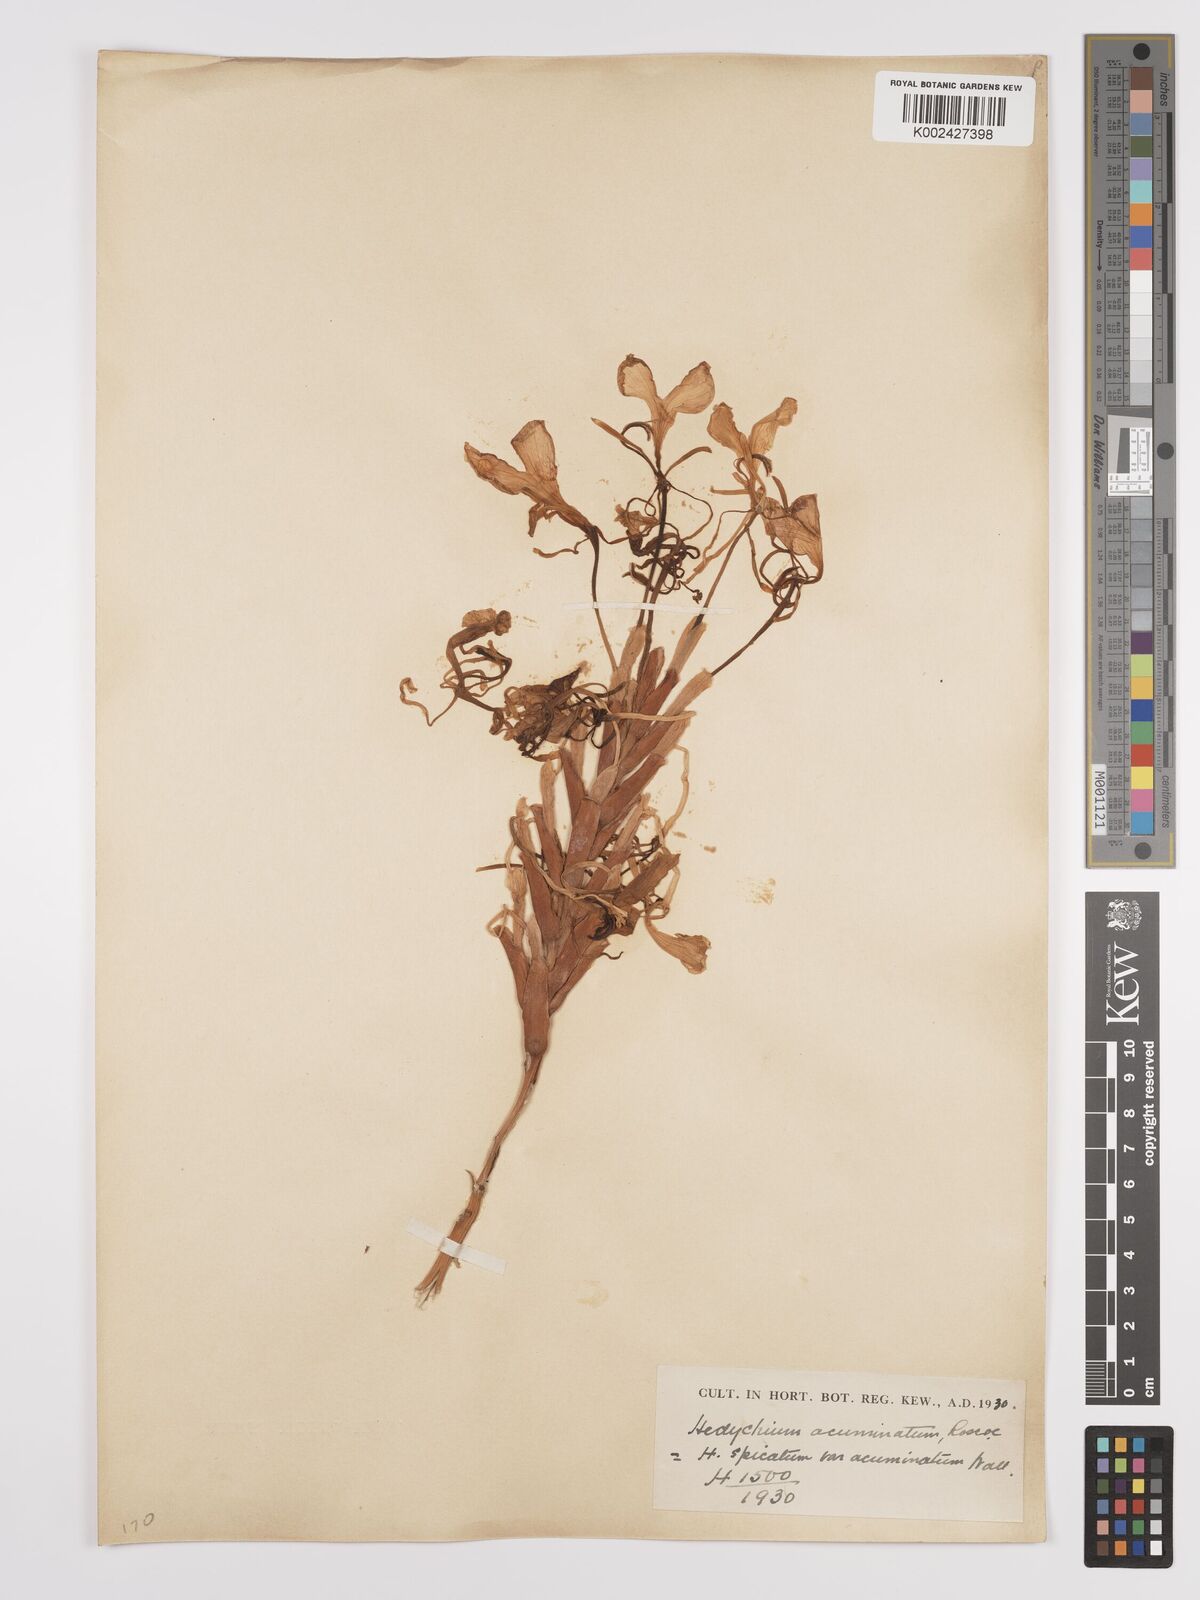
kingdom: Plantae
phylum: Tracheophyta
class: Liliopsida
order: Zingiberales
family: Zingiberaceae
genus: Hedychium
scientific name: Hedychium
